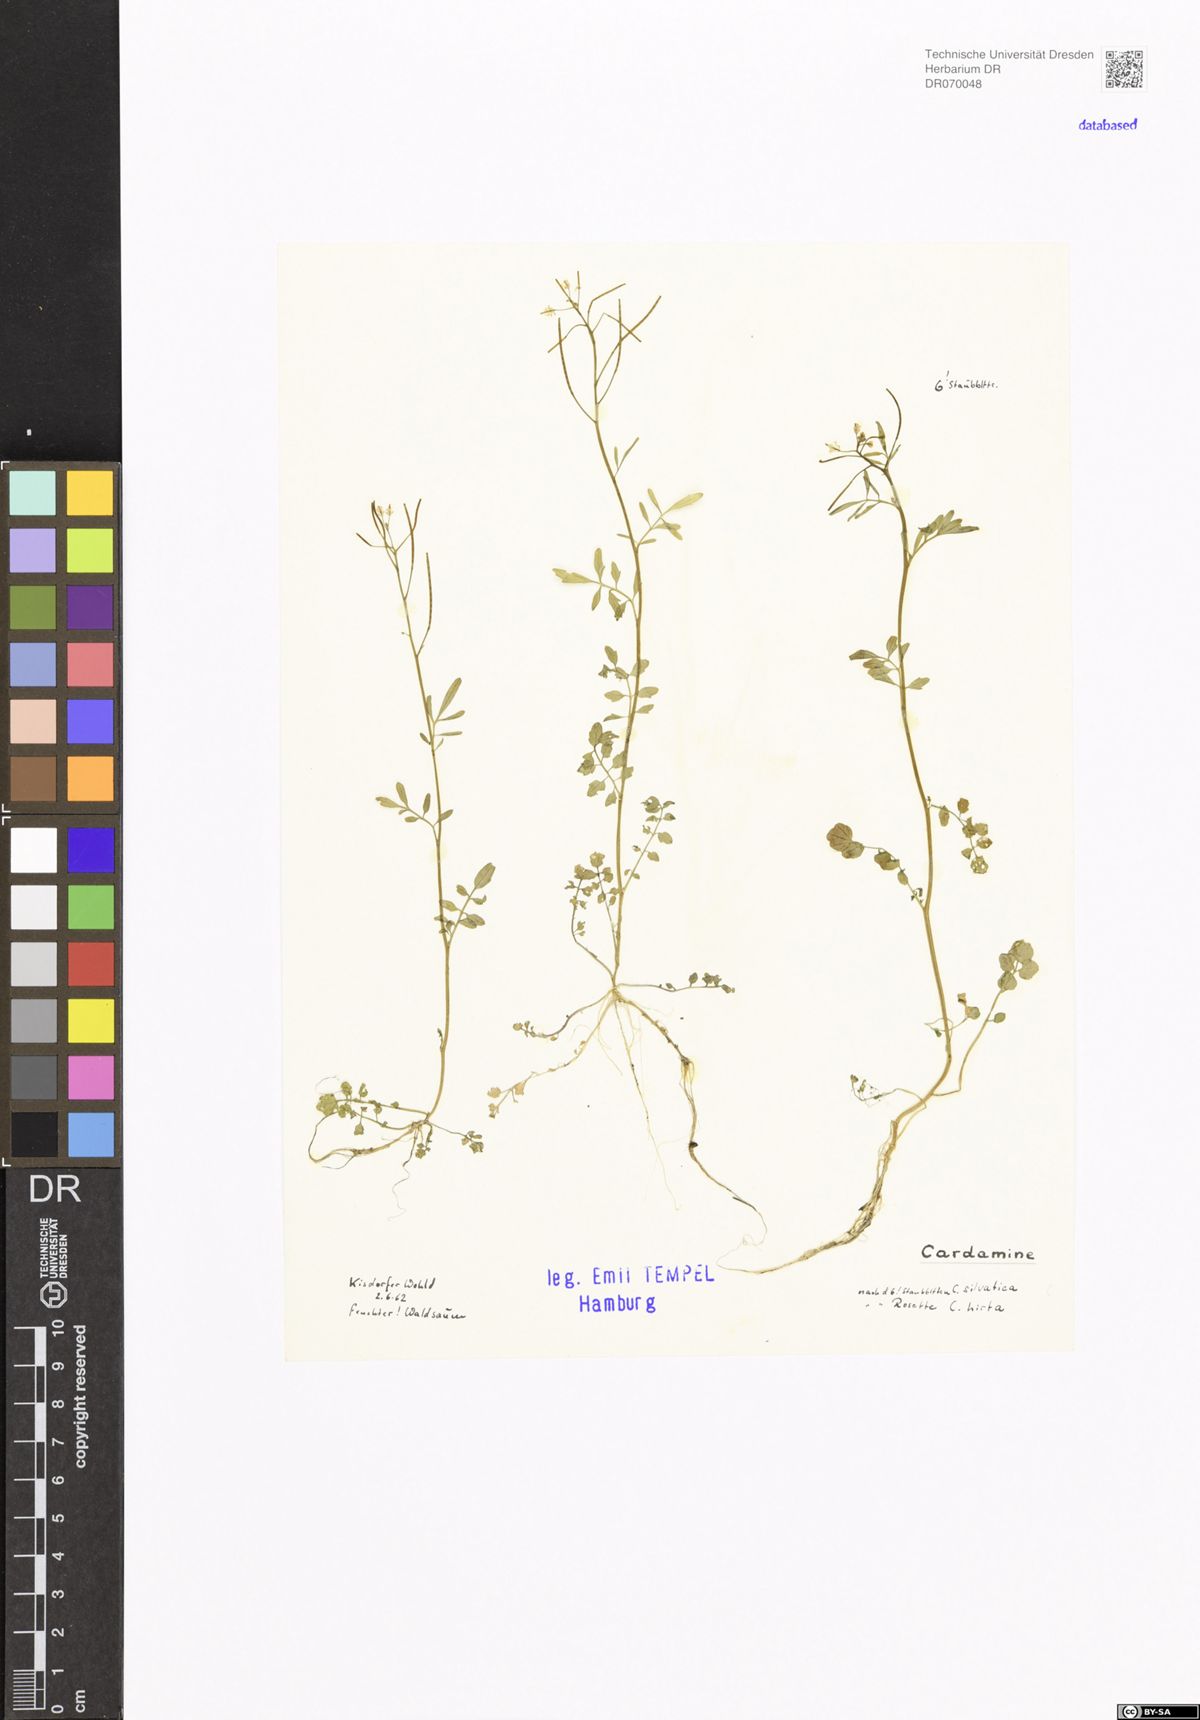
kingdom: Plantae
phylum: Tracheophyta
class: Magnoliopsida
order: Brassicales
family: Brassicaceae
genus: Cardamine
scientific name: Cardamine
